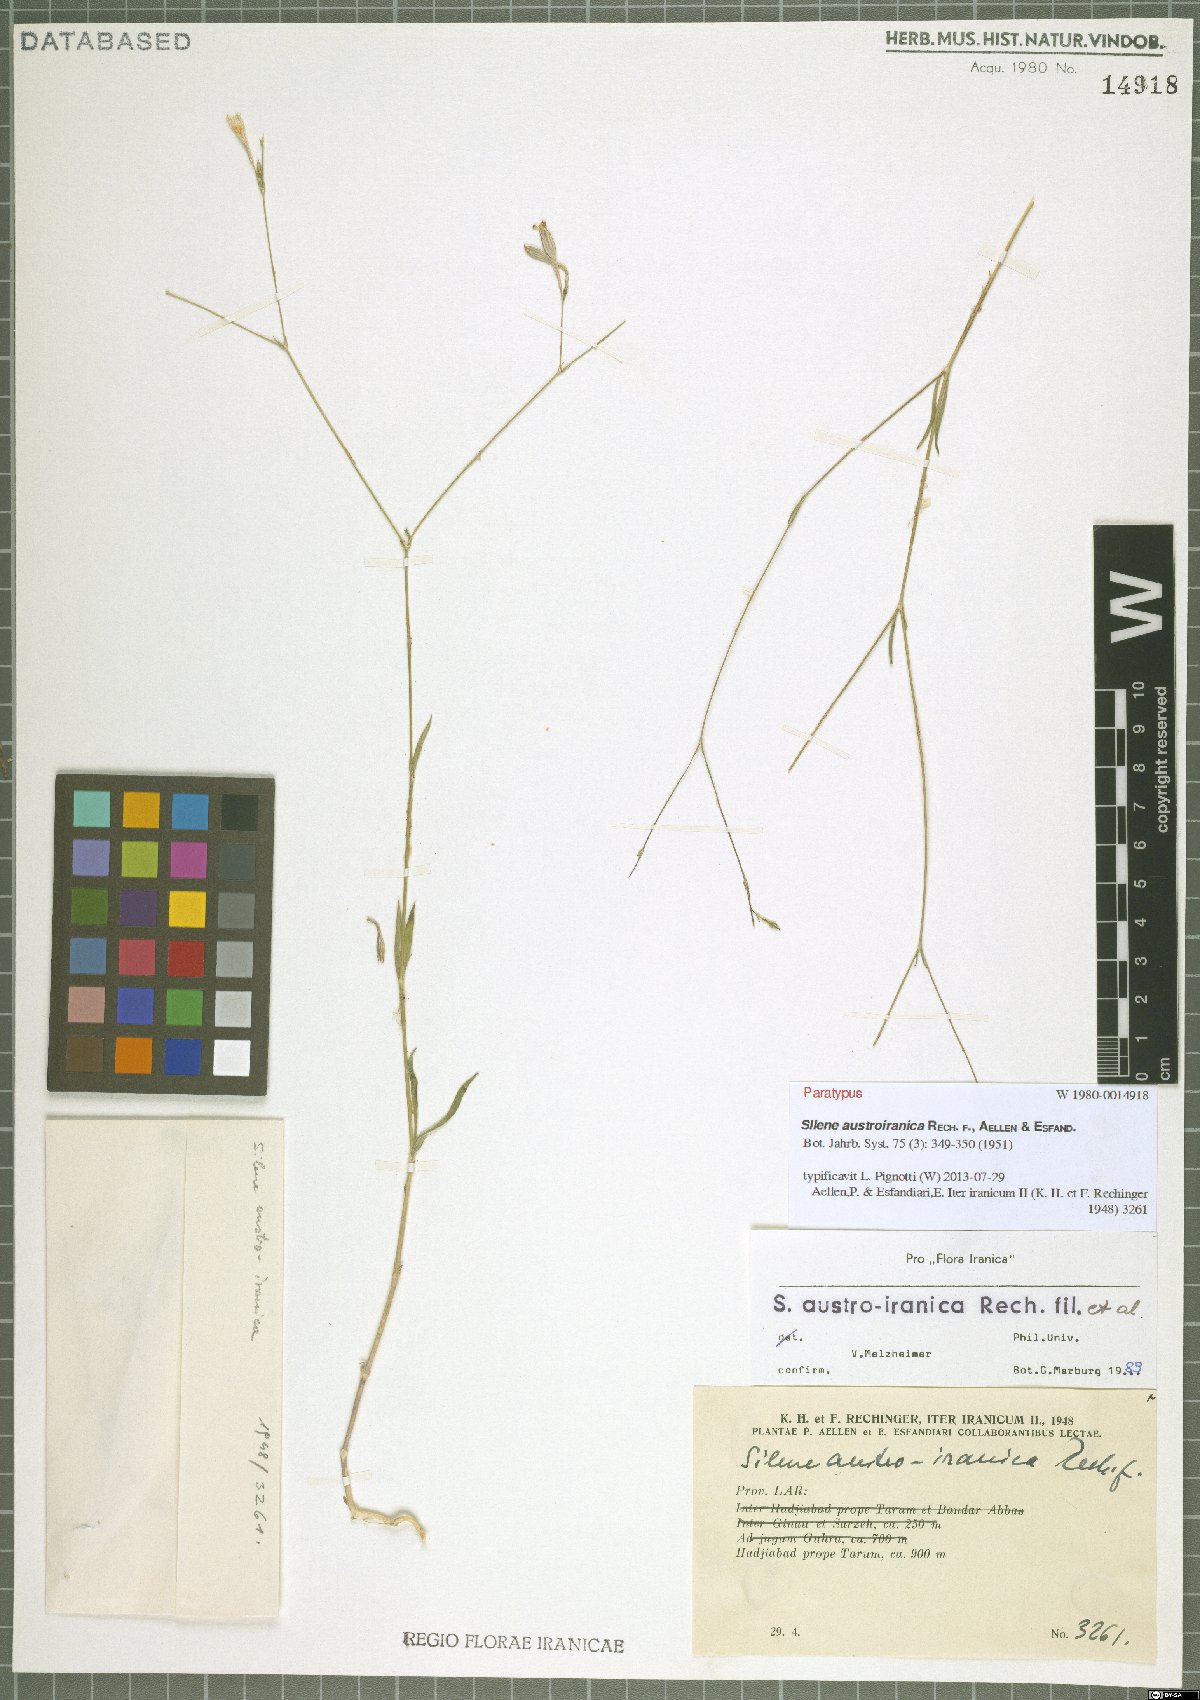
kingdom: Plantae
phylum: Tracheophyta
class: Magnoliopsida
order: Caryophyllales
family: Caryophyllaceae
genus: Silene
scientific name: Silene austroiranica
